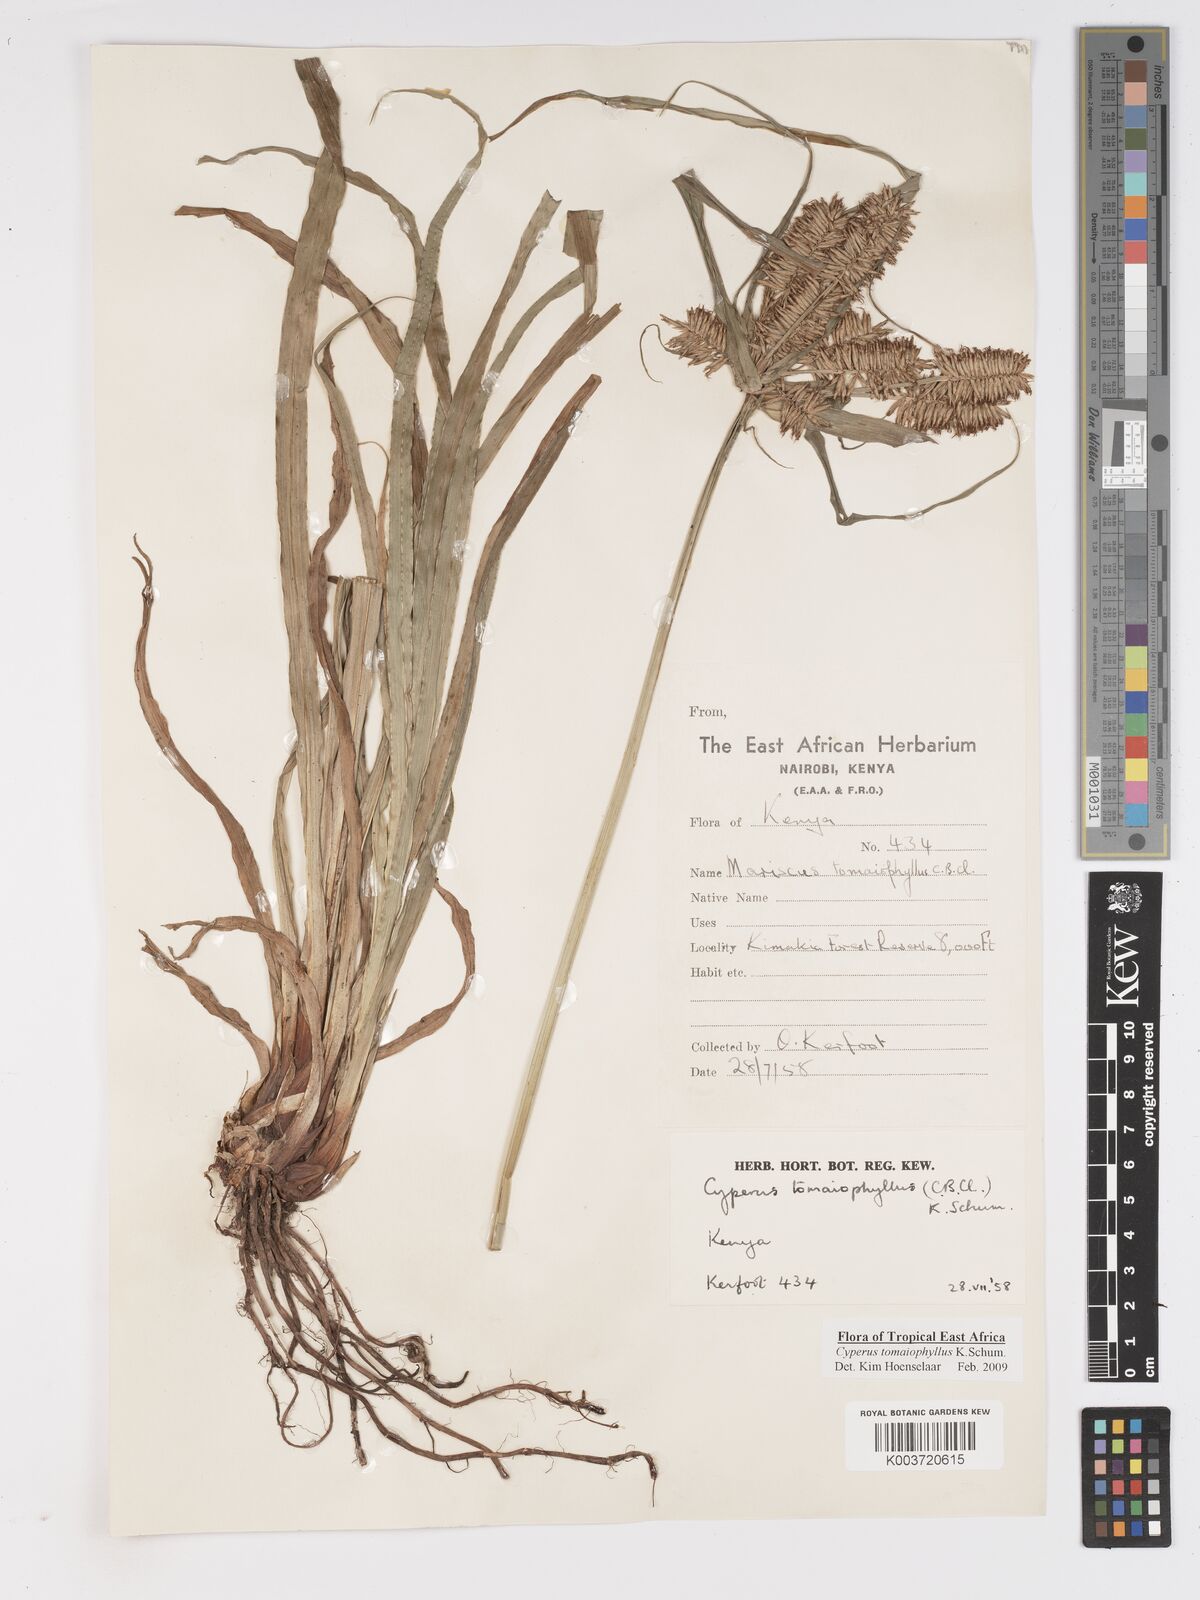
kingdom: Plantae
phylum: Tracheophyta
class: Liliopsida
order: Poales
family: Cyperaceae
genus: Cyperus
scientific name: Cyperus tomaiophyllus
